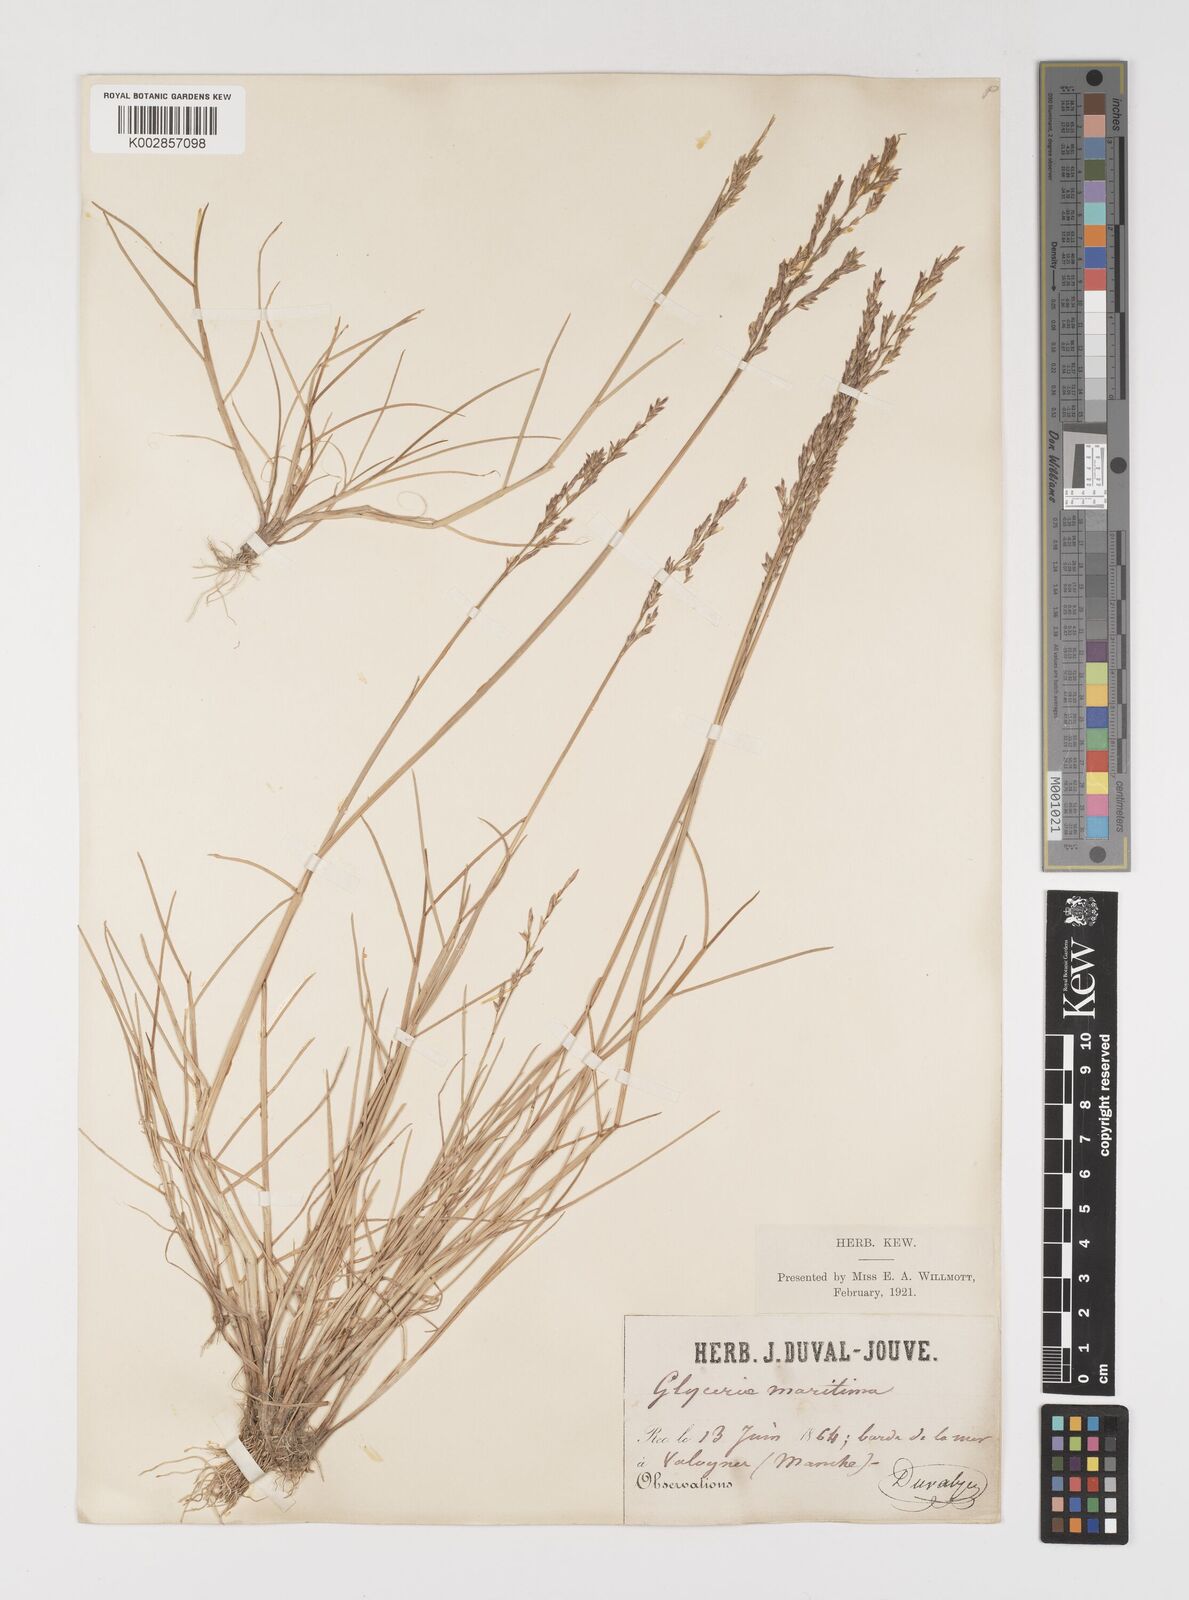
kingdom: Plantae
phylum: Tracheophyta
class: Liliopsida
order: Poales
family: Poaceae
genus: Puccinellia
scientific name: Puccinellia maritima
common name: Common saltmarsh grass
